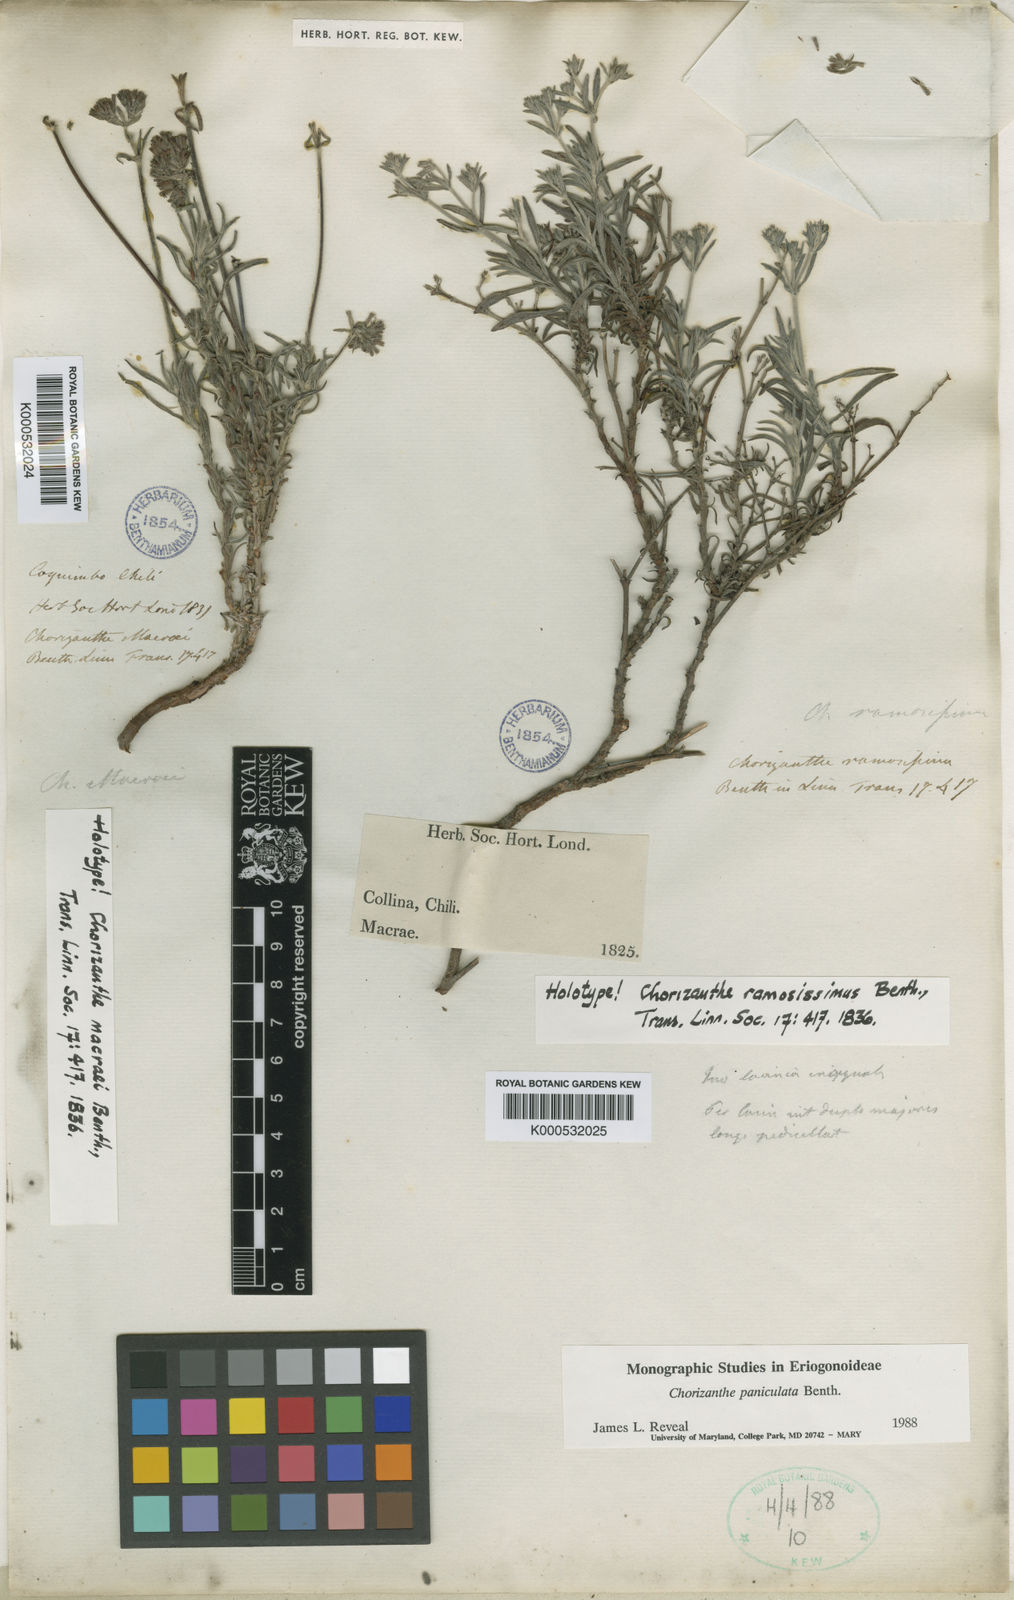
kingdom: Plantae
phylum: Tracheophyta
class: Magnoliopsida
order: Caryophyllales
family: Polygonaceae
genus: Chorizanthe
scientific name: Chorizanthe paniculata
